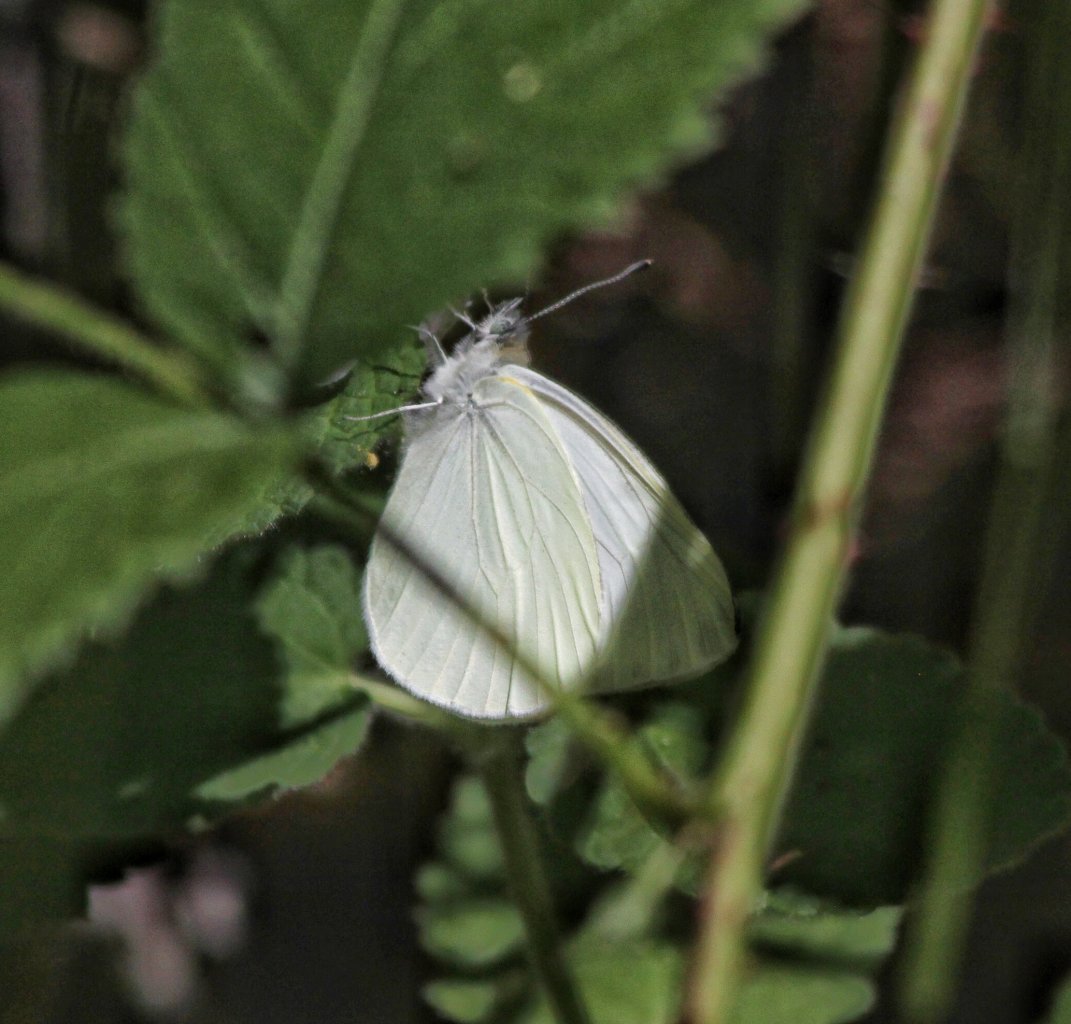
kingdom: Animalia
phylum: Arthropoda
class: Insecta
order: Lepidoptera
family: Pieridae
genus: Pieris
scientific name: Pieris marginalis
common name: Margined White
